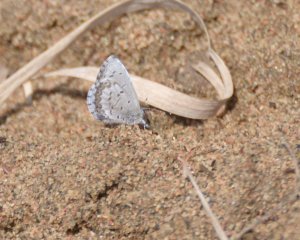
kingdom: Animalia
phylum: Arthropoda
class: Insecta
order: Lepidoptera
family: Lycaenidae
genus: Celastrina
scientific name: Celastrina lucia
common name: Northern Spring Azure
